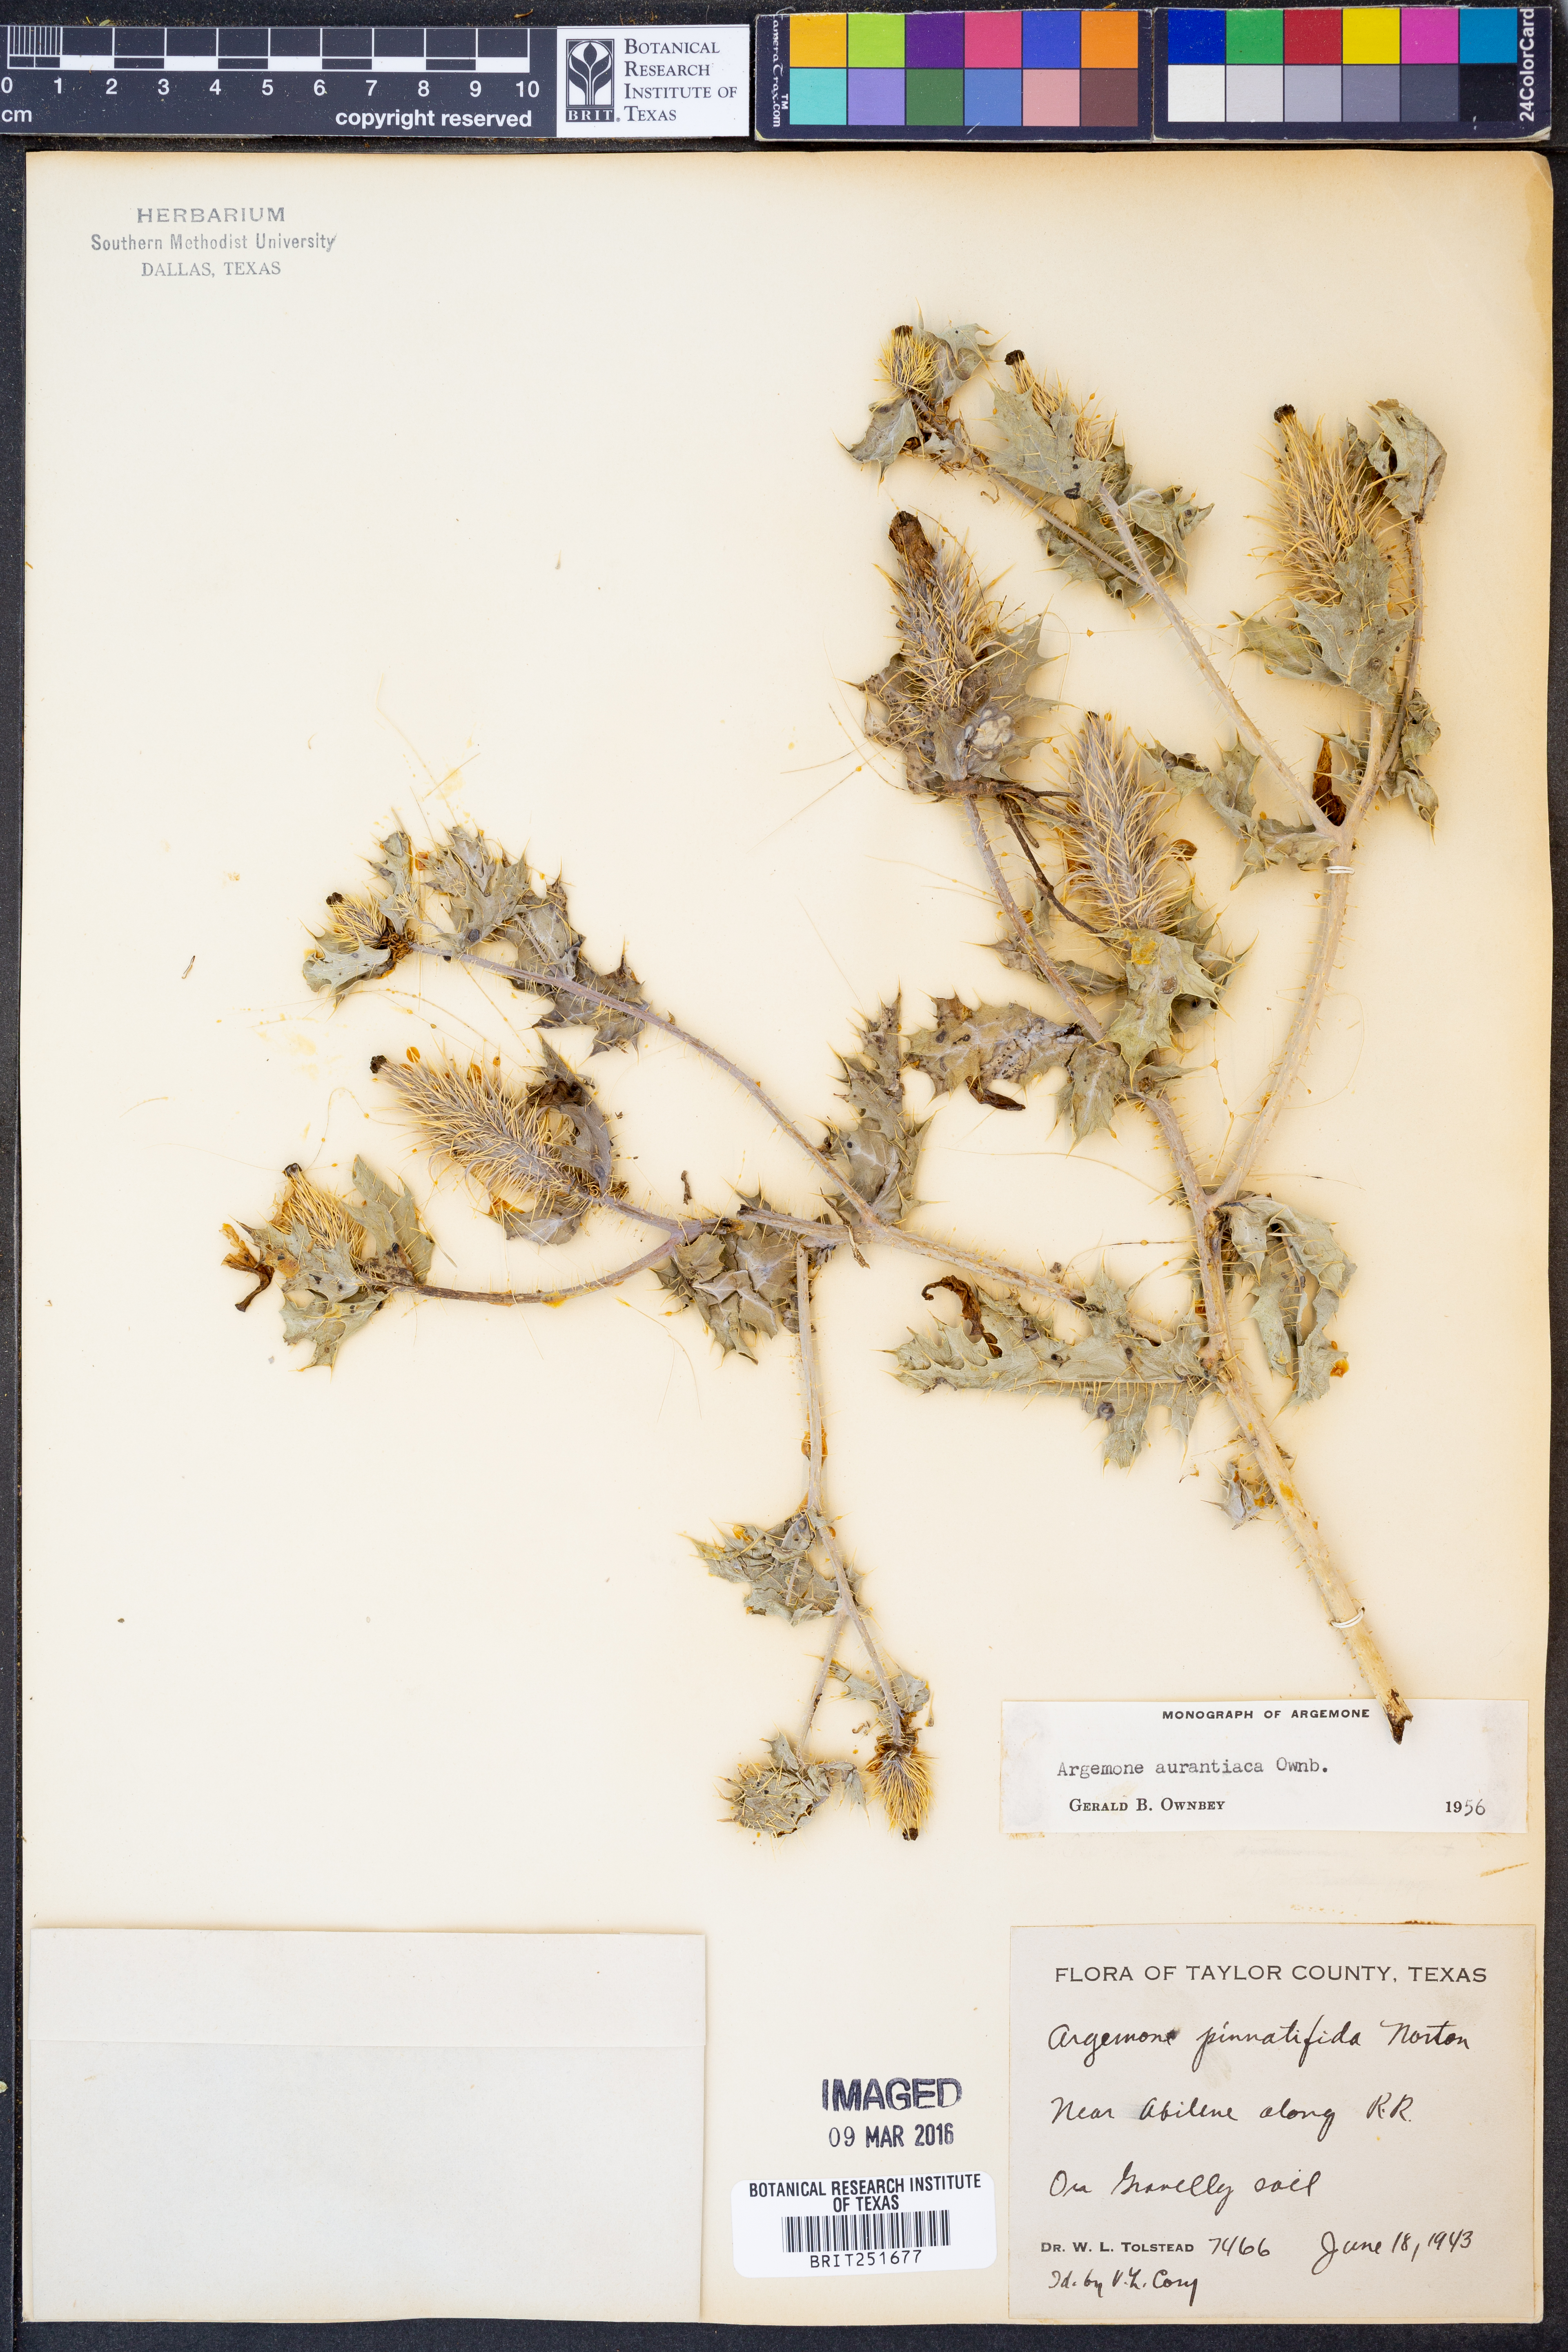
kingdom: Plantae
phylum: Tracheophyta
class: Magnoliopsida
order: Ranunculales
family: Papaveraceae
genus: Argemone
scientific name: Argemone aurantiaca
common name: Texas prickly-poppy
